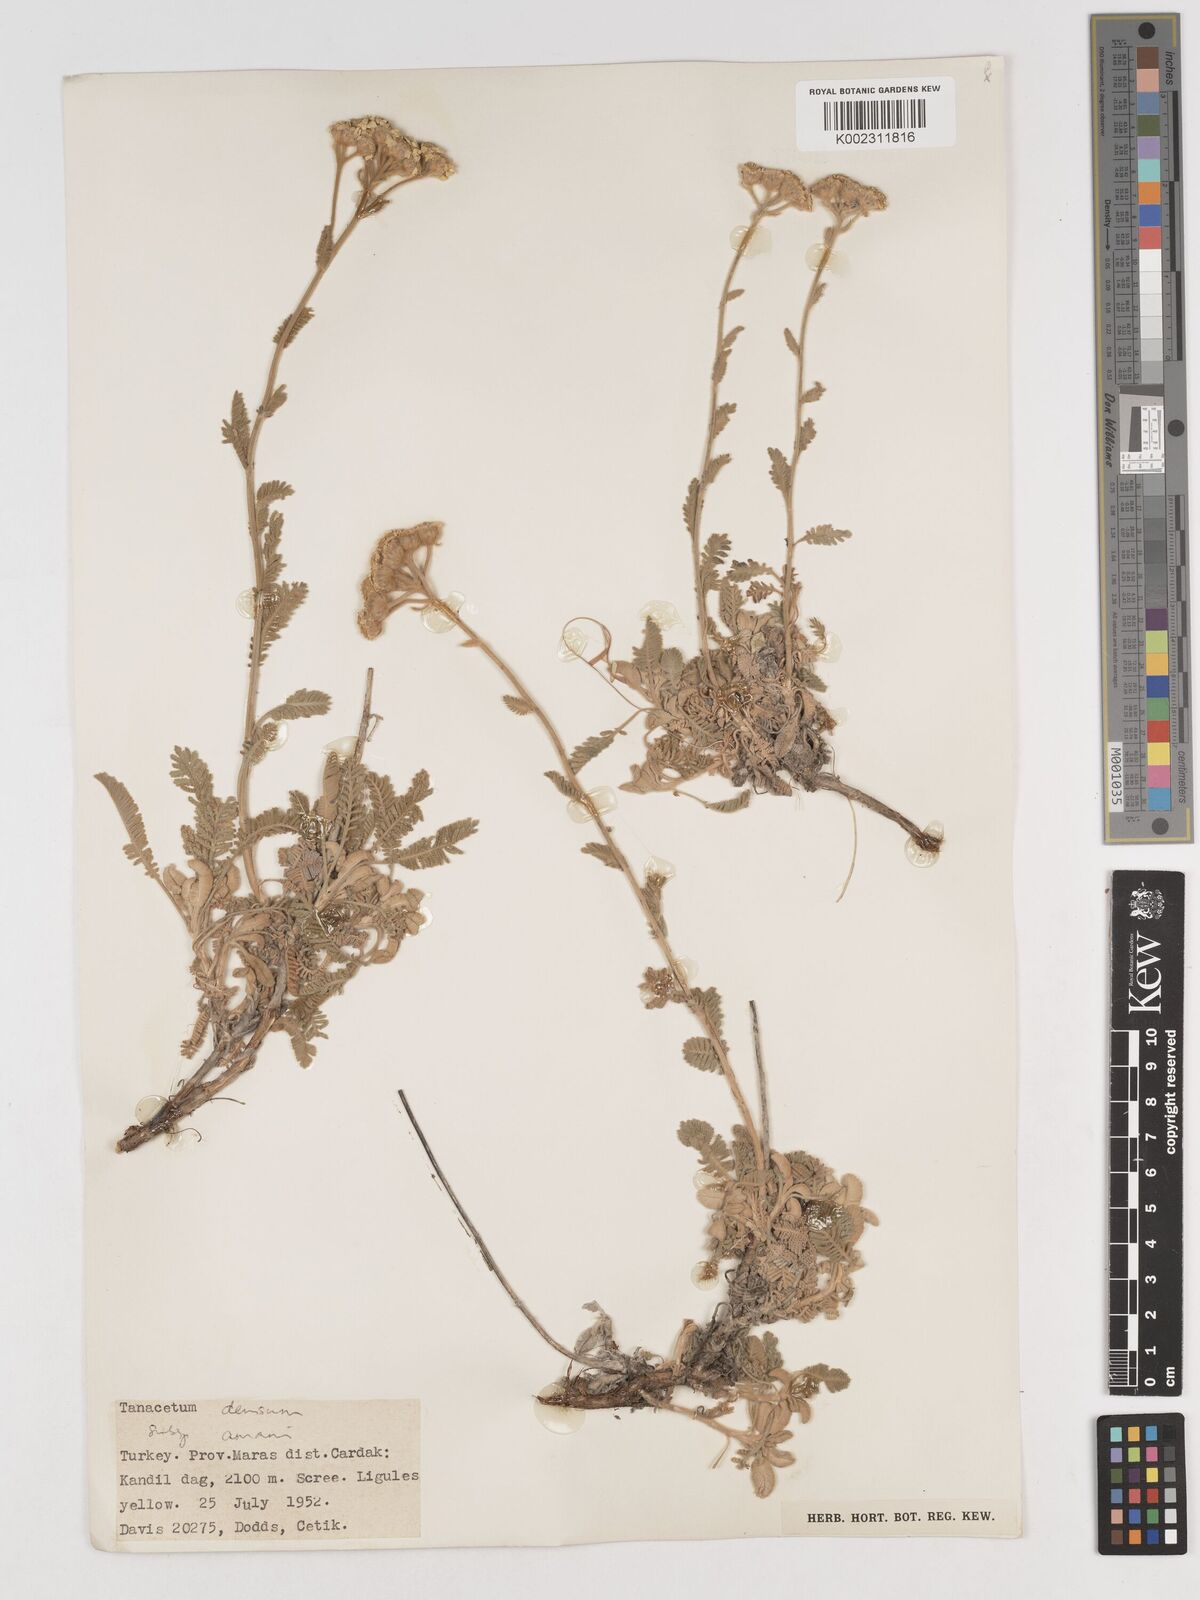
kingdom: Plantae
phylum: Tracheophyta
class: Magnoliopsida
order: Asterales
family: Asteraceae
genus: Tanacetum
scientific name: Tanacetum densum
